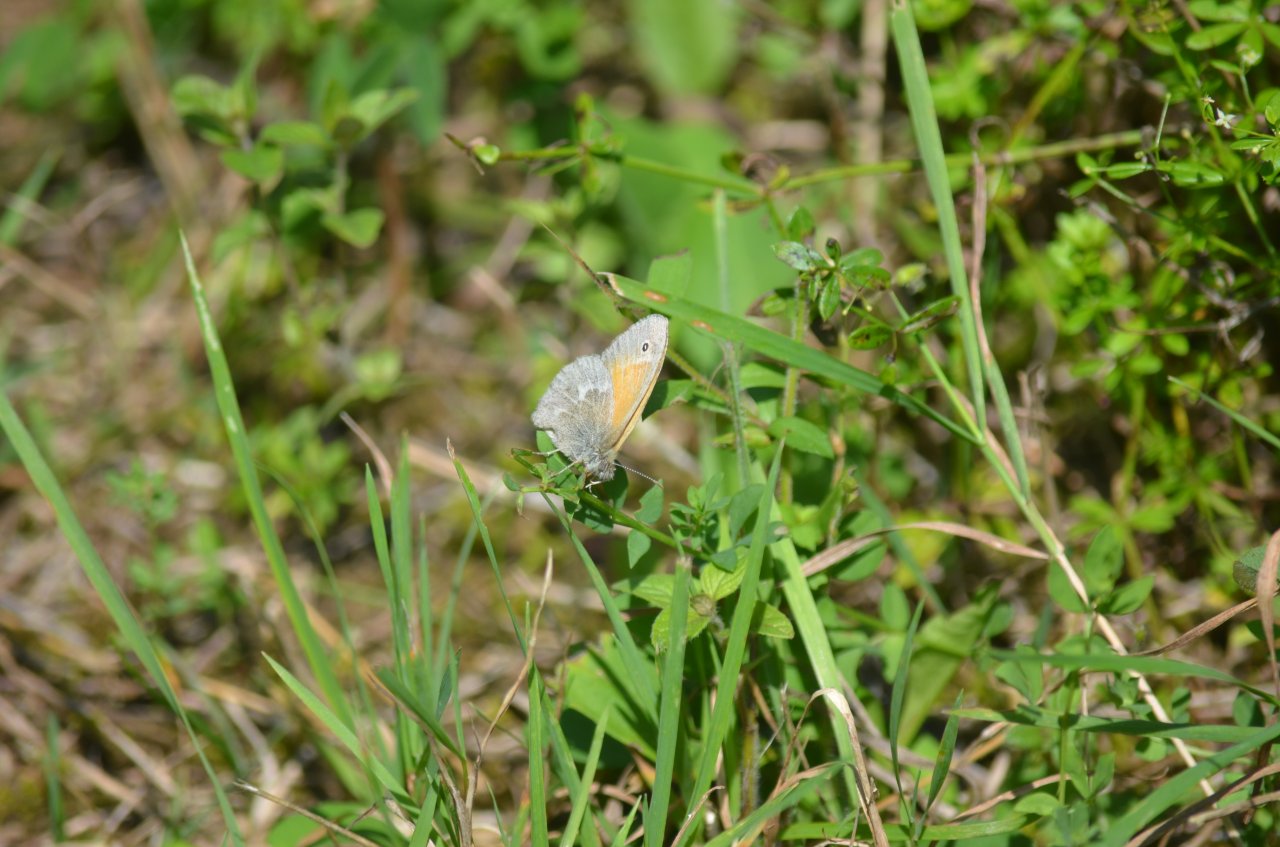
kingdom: Animalia
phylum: Arthropoda
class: Insecta
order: Lepidoptera
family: Nymphalidae
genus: Coenonympha
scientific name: Coenonympha tullia
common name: Large Heath
